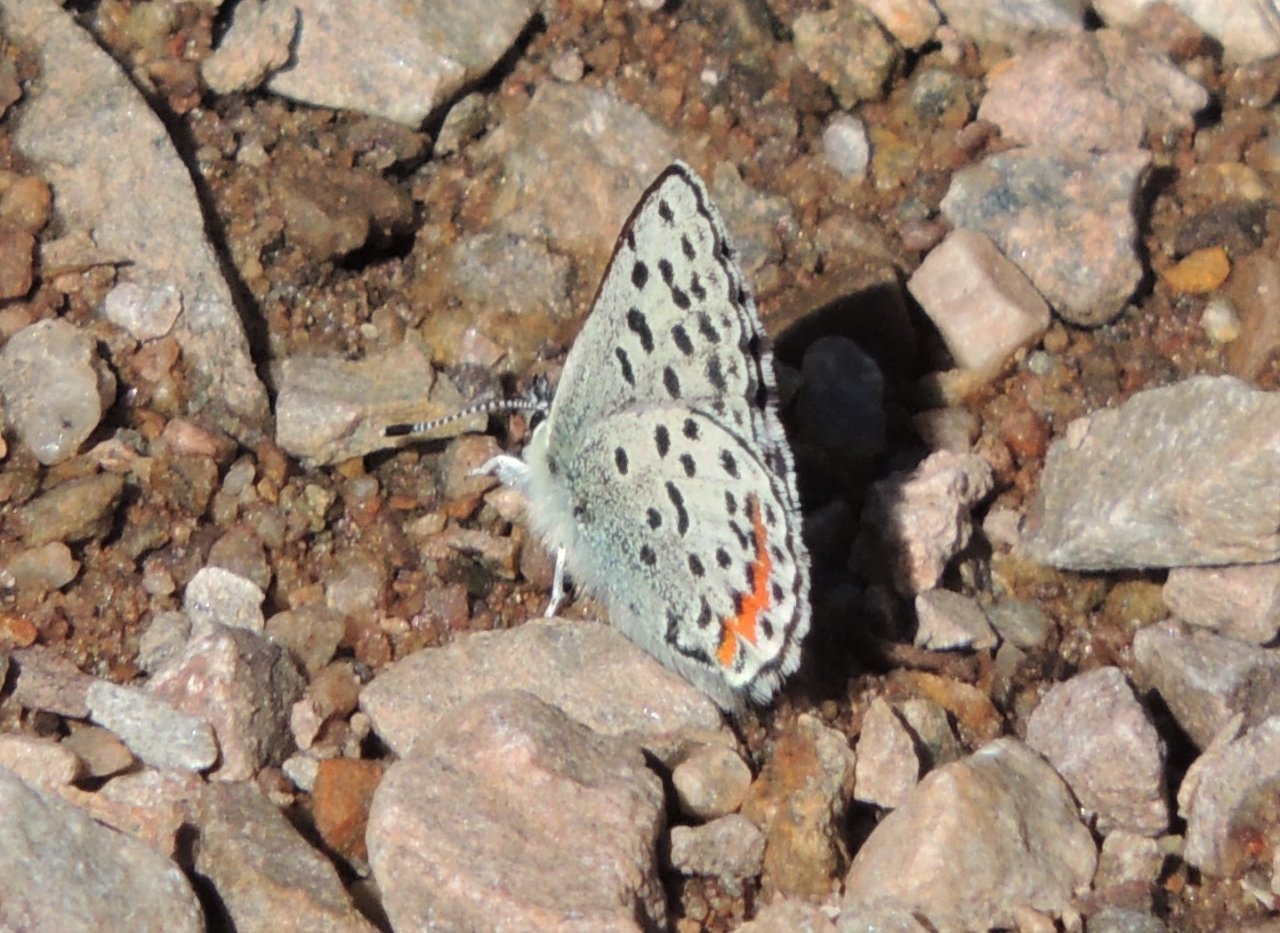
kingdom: Animalia
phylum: Arthropoda
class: Insecta
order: Lepidoptera
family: Lycaenidae
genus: Euphilotes
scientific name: Euphilotes battoides
